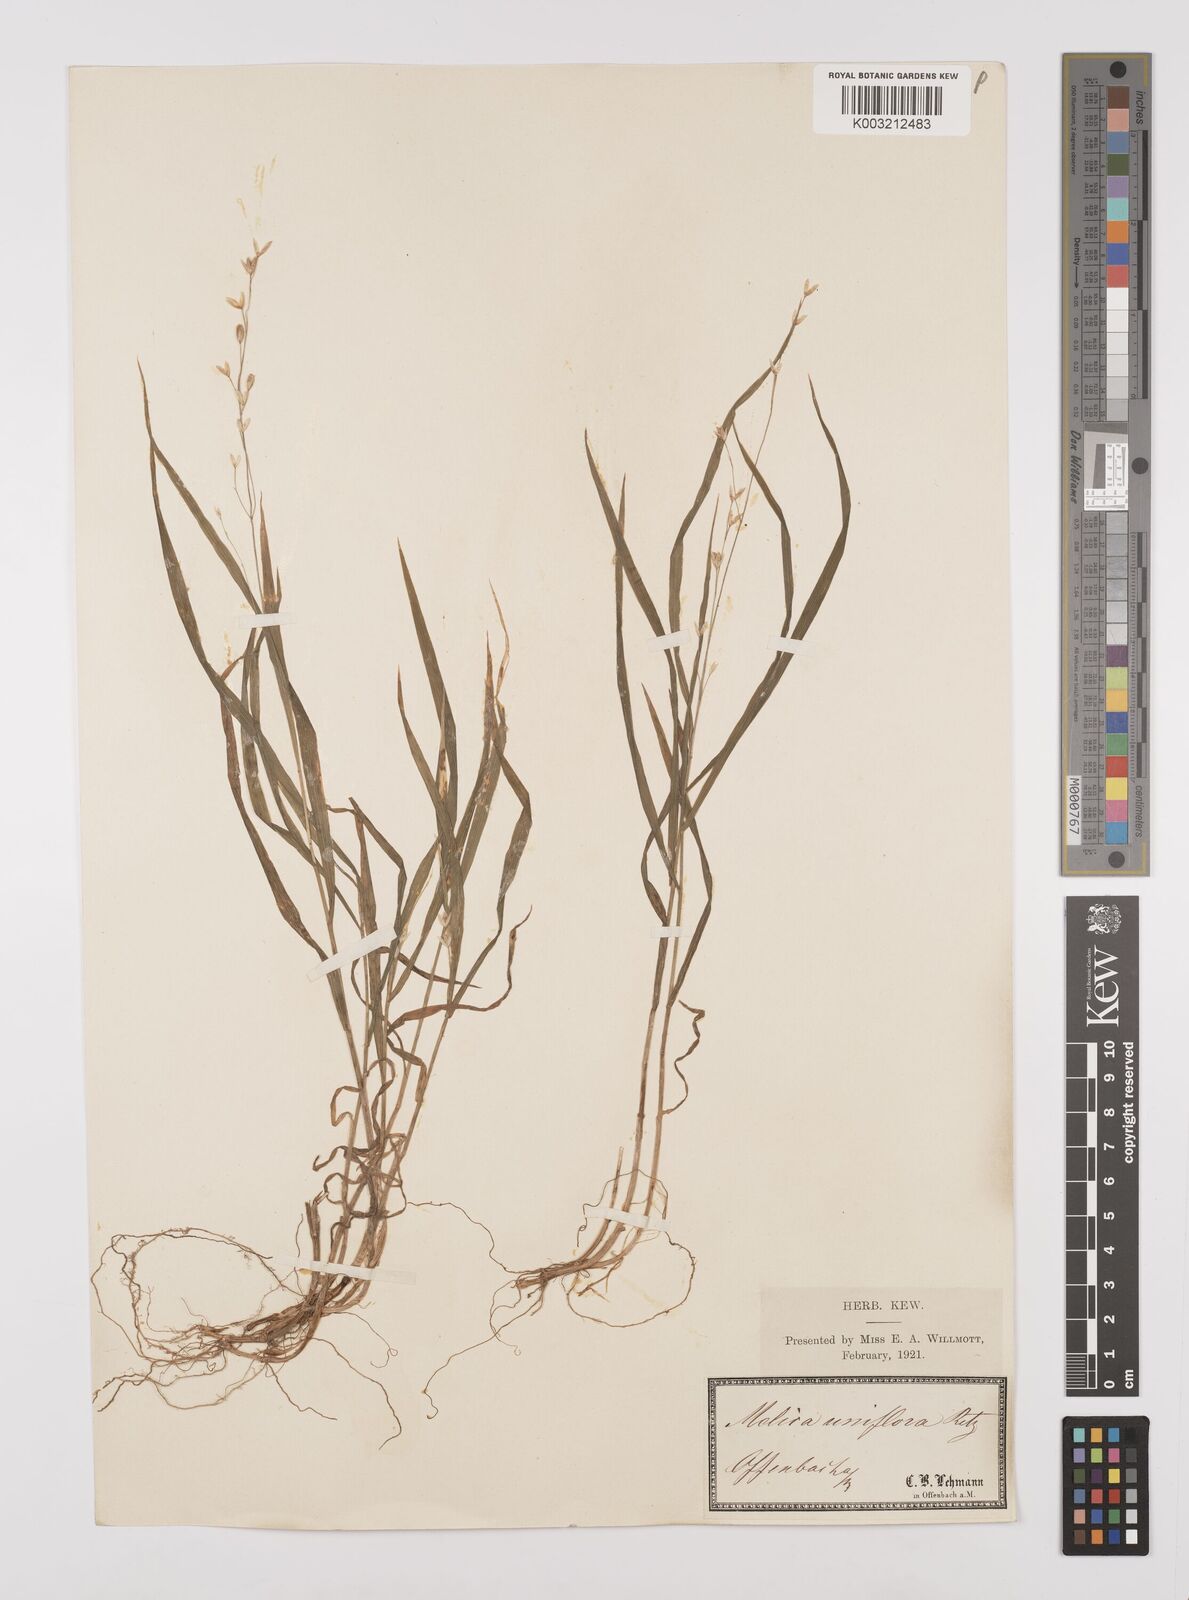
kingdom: Plantae
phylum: Tracheophyta
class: Liliopsida
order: Poales
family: Poaceae
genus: Melica
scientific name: Melica uniflora
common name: Wood melick
